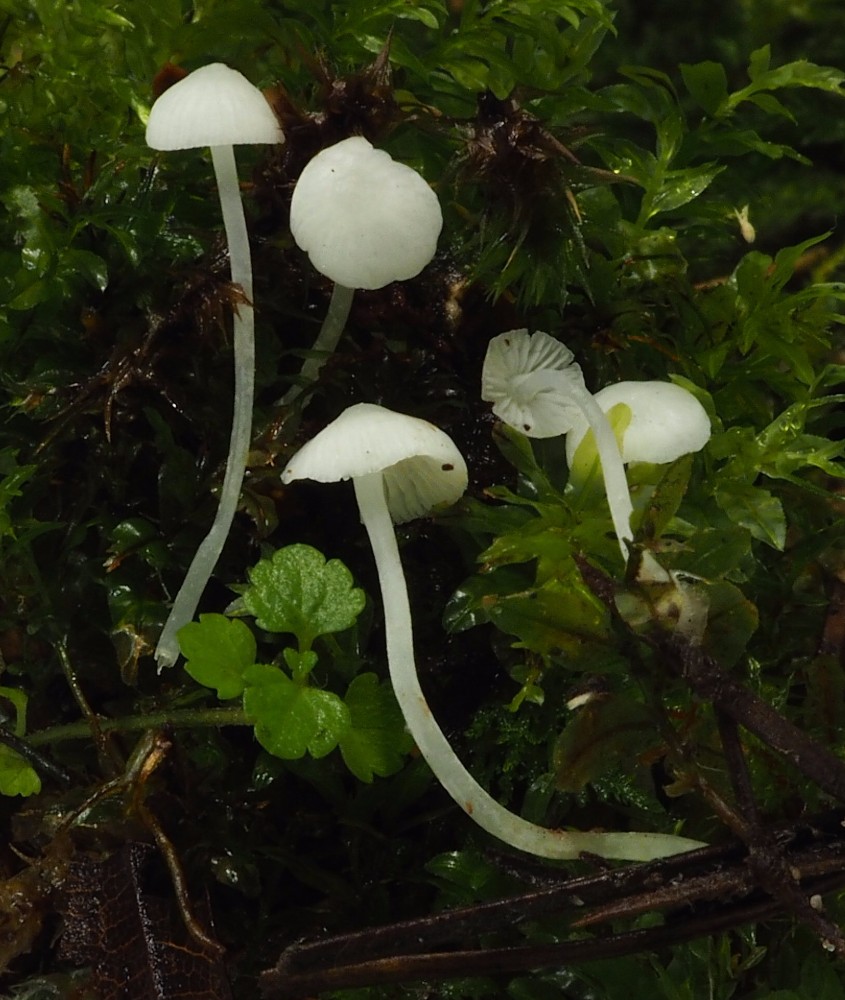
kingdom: Fungi
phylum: Basidiomycota
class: Agaricomycetes
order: Agaricales
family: Mycenaceae
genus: Hemimycena
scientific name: Hemimycena lactea
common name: mælkehvid huesvamp
